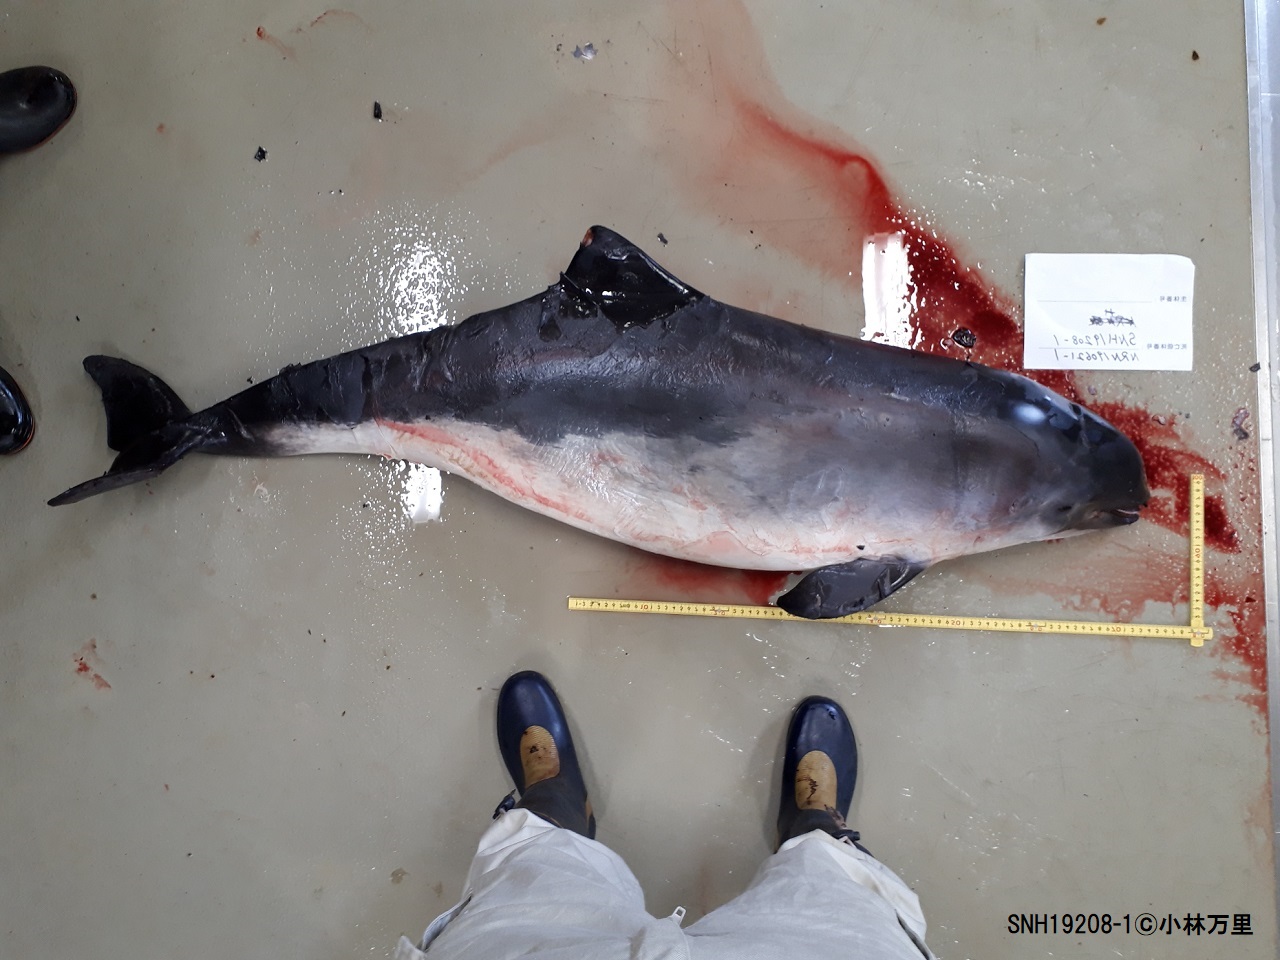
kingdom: Animalia
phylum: Chordata
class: Mammalia
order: Cetacea
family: Phocoenidae
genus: Phocoena
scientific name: Phocoena phocoena
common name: Harbour porpoise
